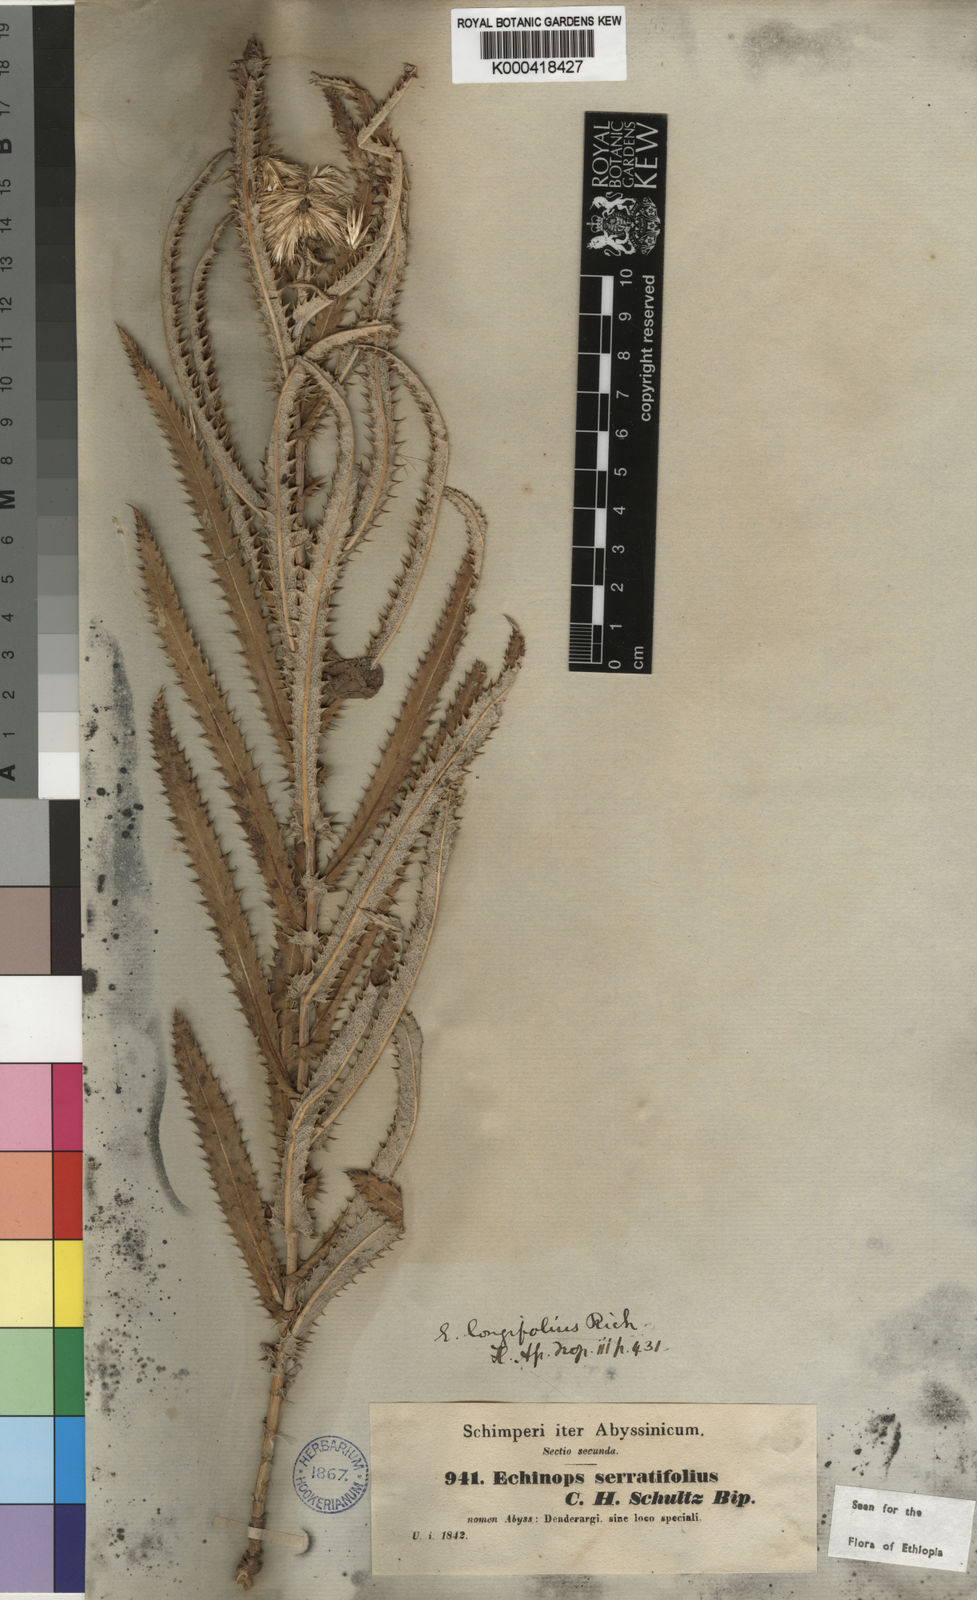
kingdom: Plantae
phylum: Tracheophyta
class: Magnoliopsida
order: Asterales
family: Asteraceae
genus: Echinops
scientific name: Echinops longifolius
